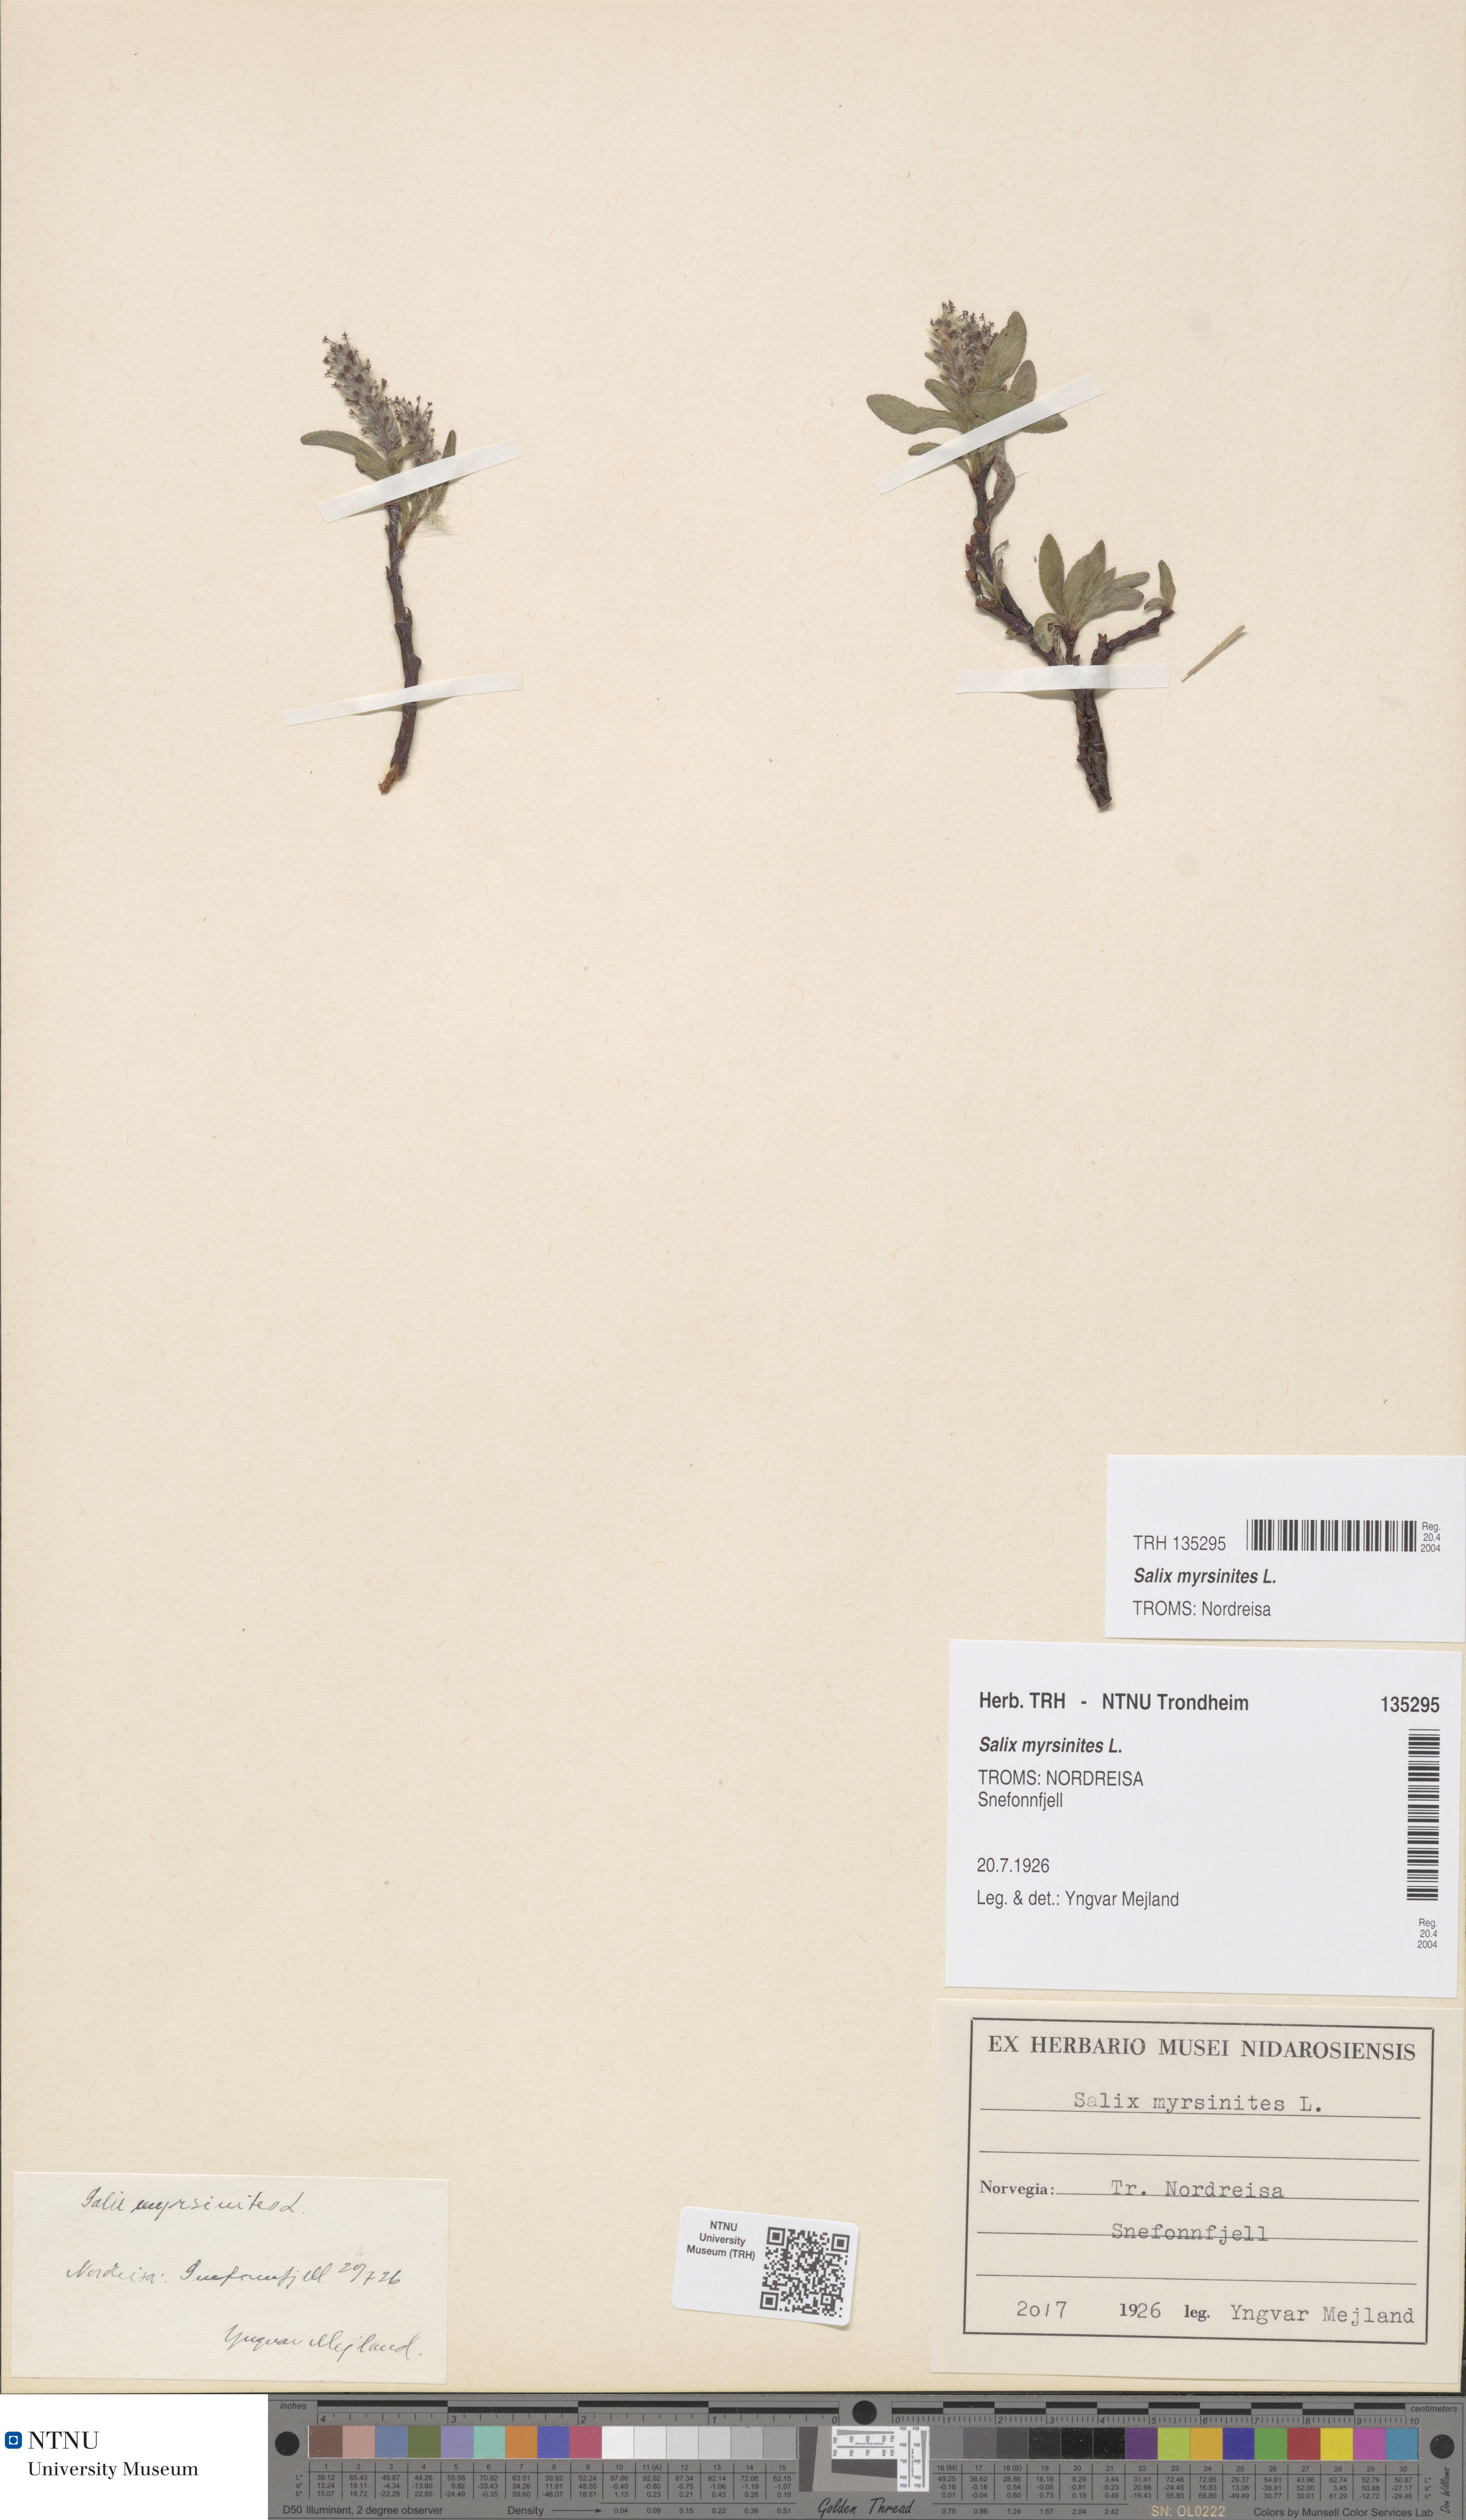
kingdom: Plantae
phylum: Tracheophyta
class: Magnoliopsida
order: Malpighiales
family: Salicaceae
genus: Salix
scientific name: Salix myrsinites
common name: Myrtle willow
